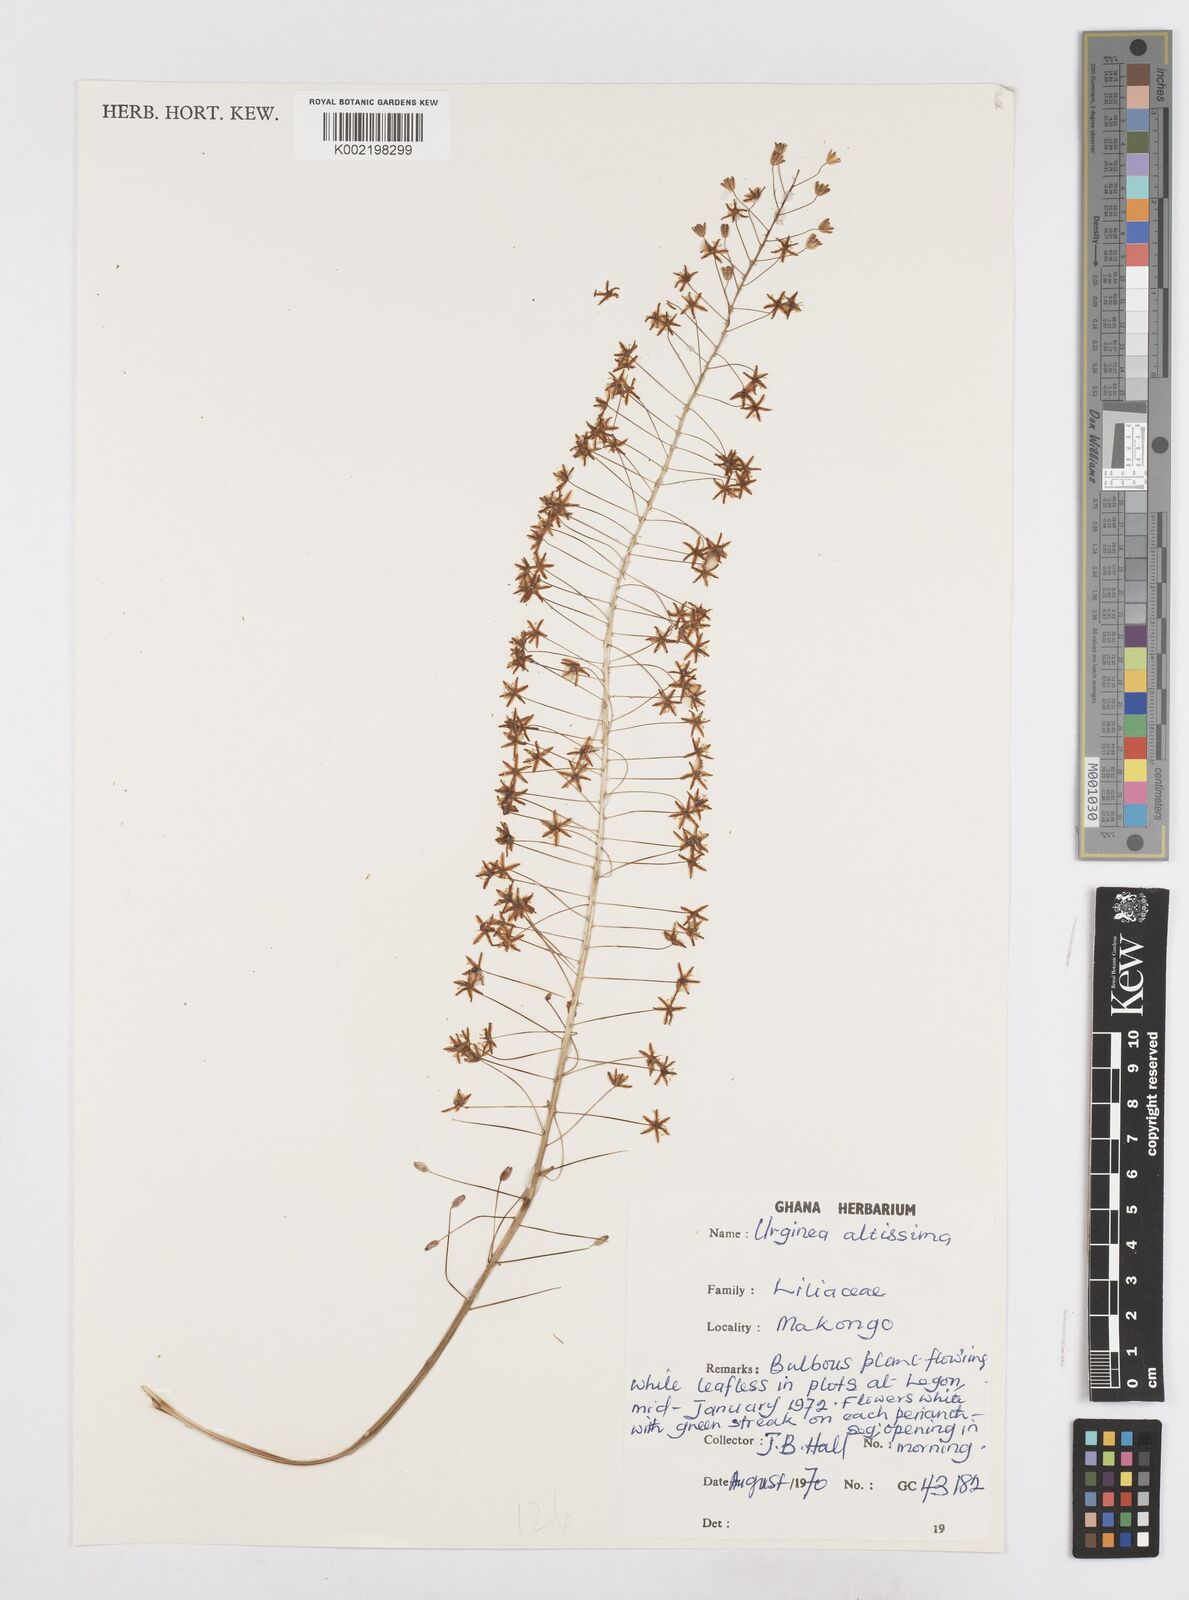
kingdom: Plantae
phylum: Tracheophyta
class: Liliopsida
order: Asparagales
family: Asparagaceae
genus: Drimia
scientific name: Drimia altissima
